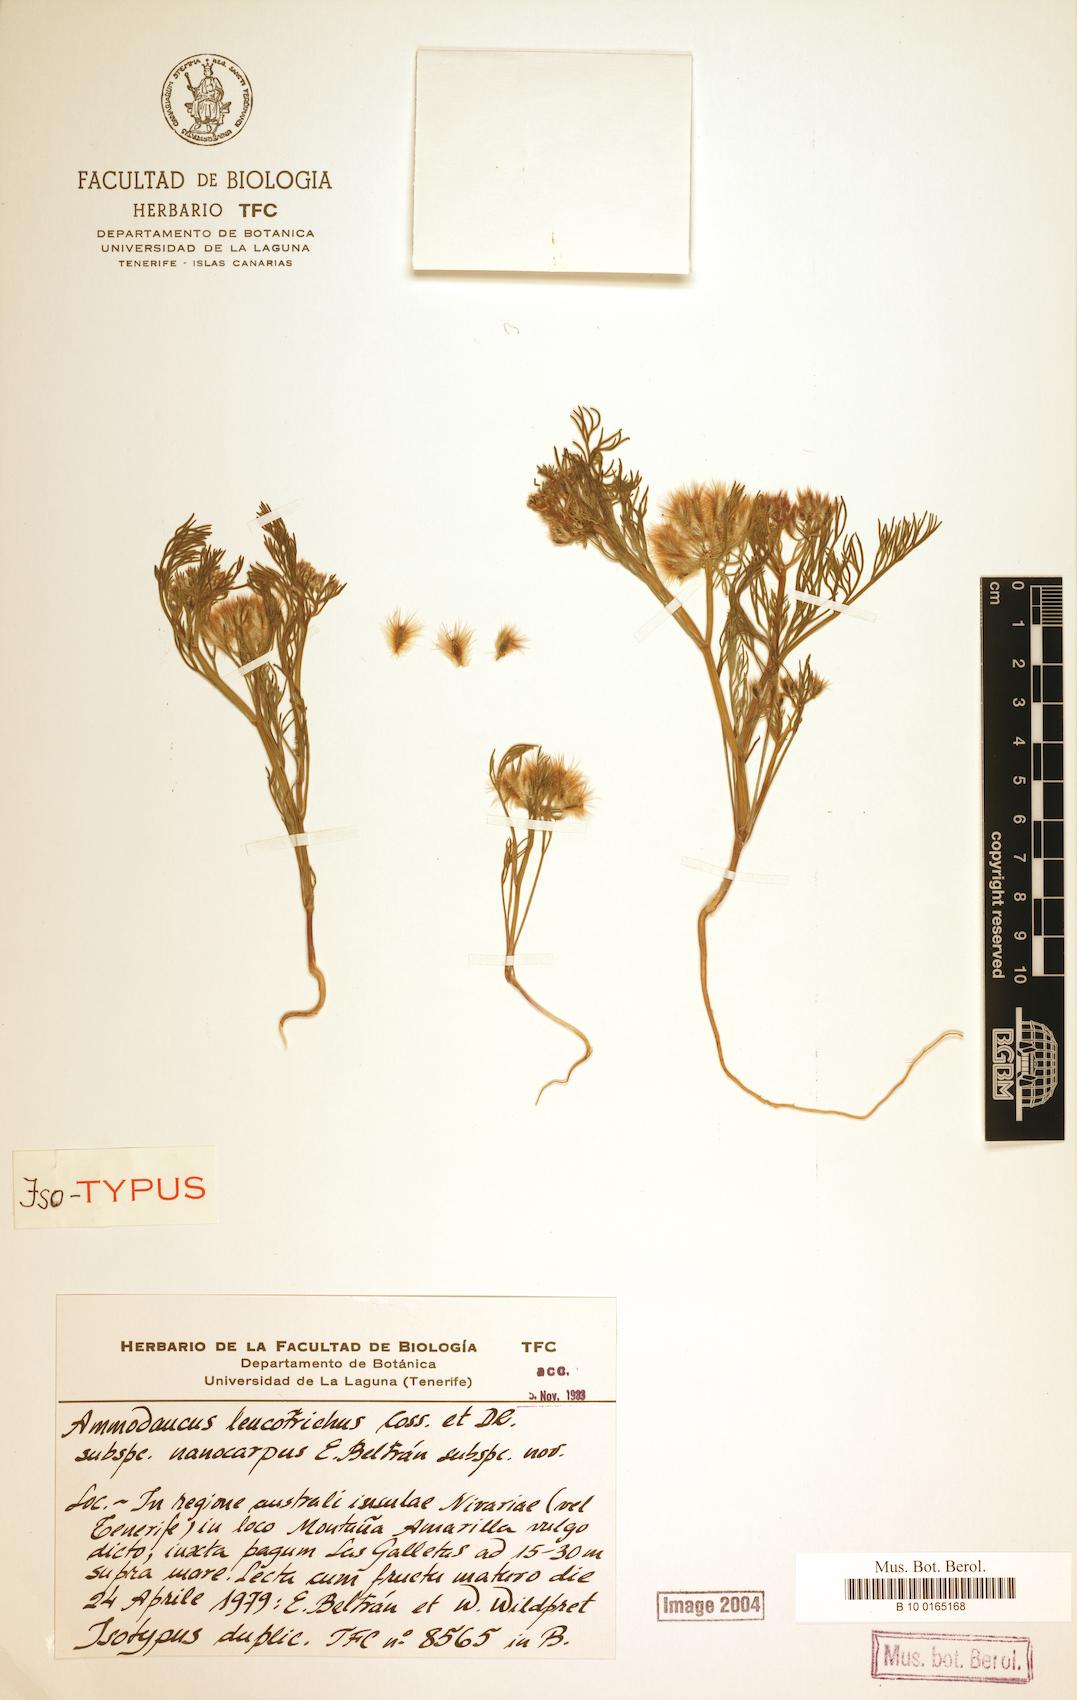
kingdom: Plantae
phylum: Tracheophyta
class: Magnoliopsida
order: Apiales
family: Apiaceae
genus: Ammodaucus
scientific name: Ammodaucus leucotrichus
